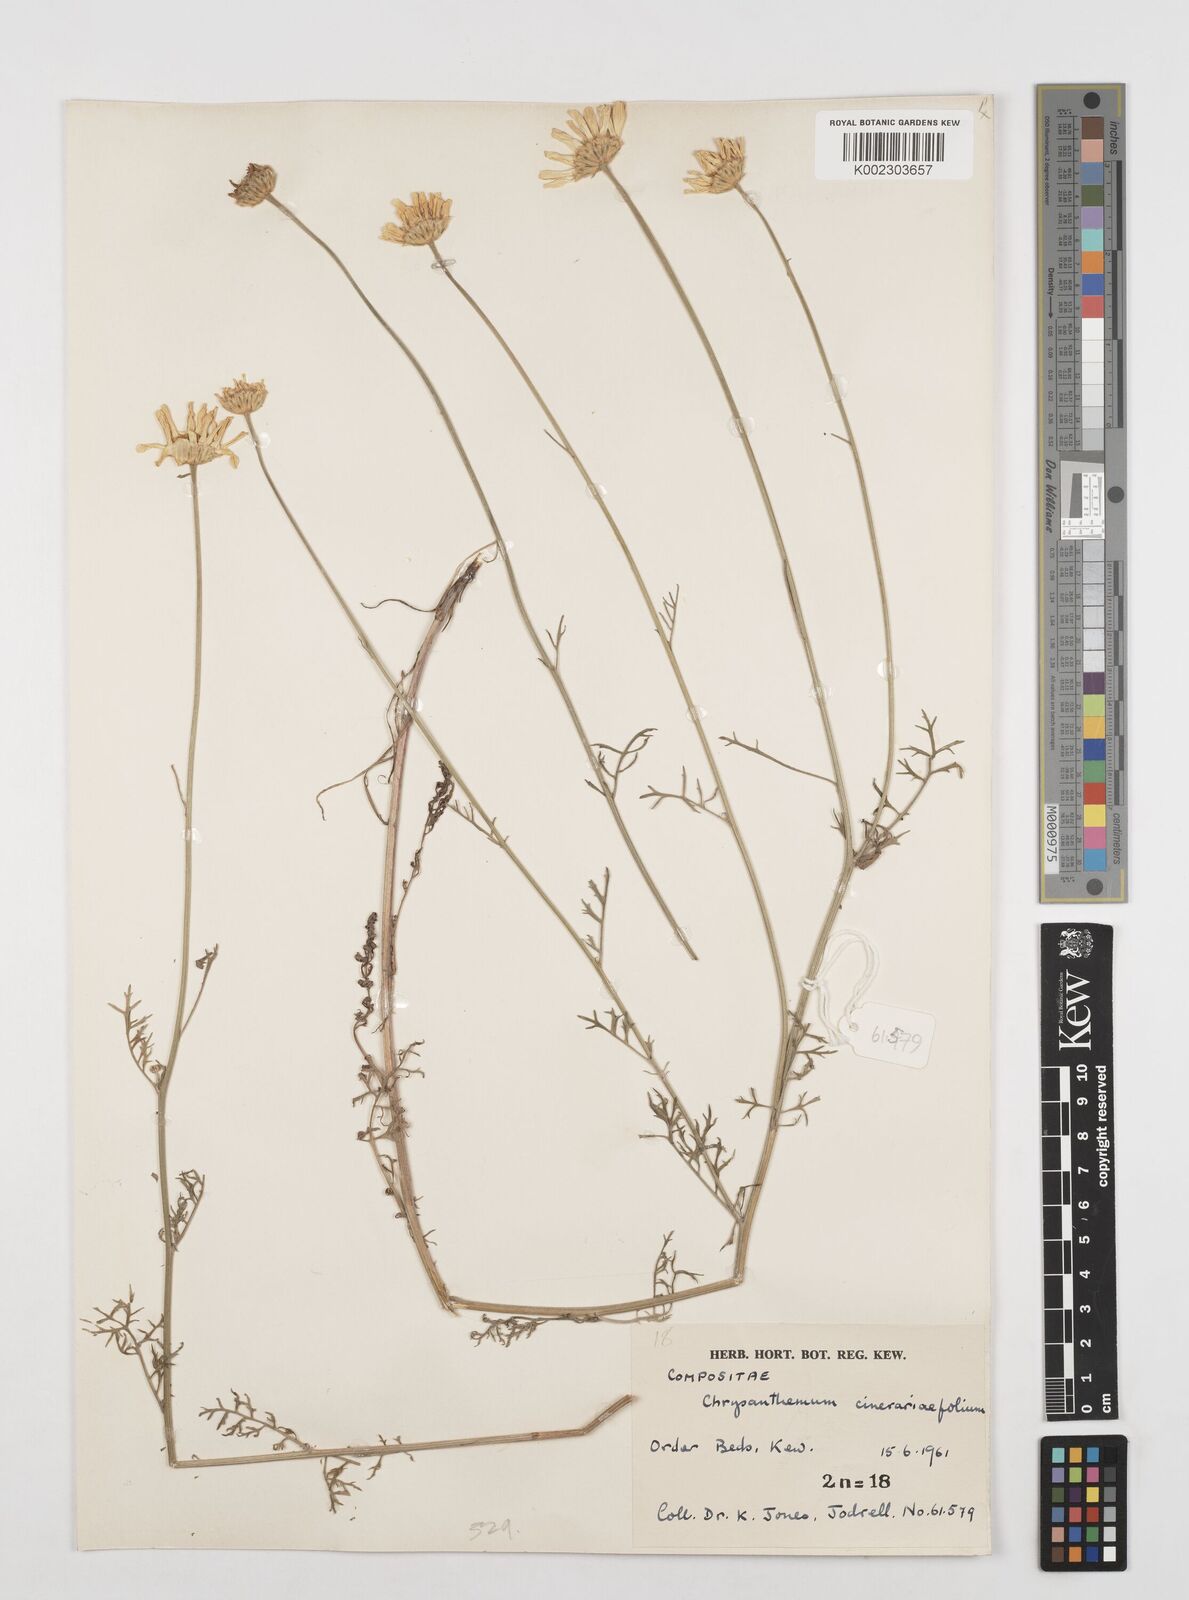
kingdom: Plantae
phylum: Tracheophyta
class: Magnoliopsida
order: Asterales
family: Asteraceae
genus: Tanacetum
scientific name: Tanacetum cinerariifolium
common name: Dalmatian pyrethrum
